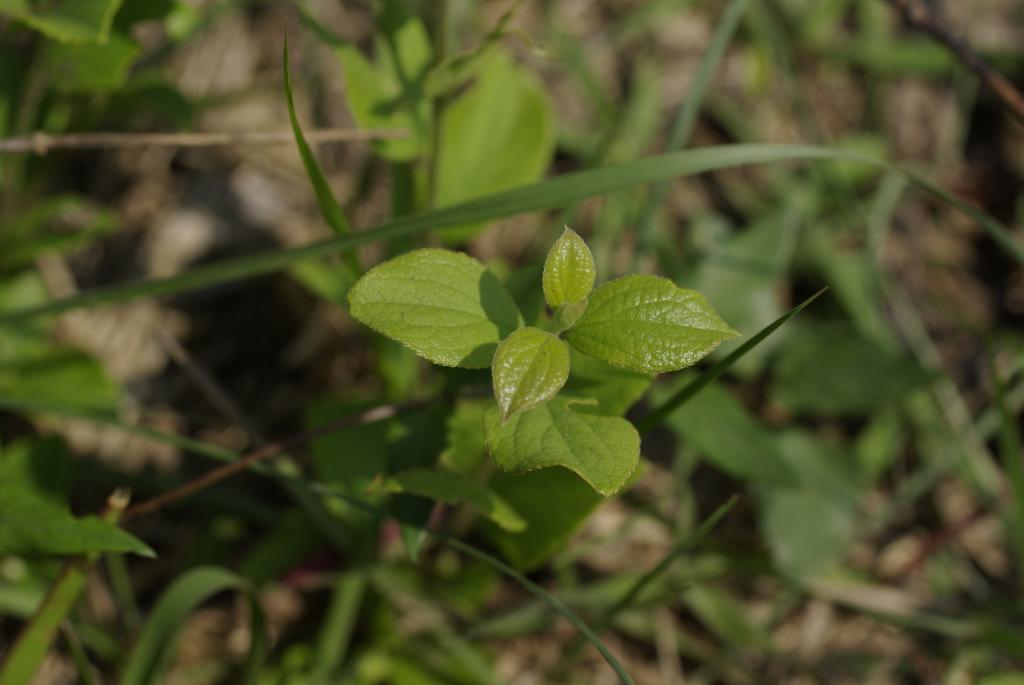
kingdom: Plantae
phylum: Tracheophyta
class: Magnoliopsida
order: Ericales
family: Symplocaceae
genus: Symplocos
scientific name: Symplocos paniculata
